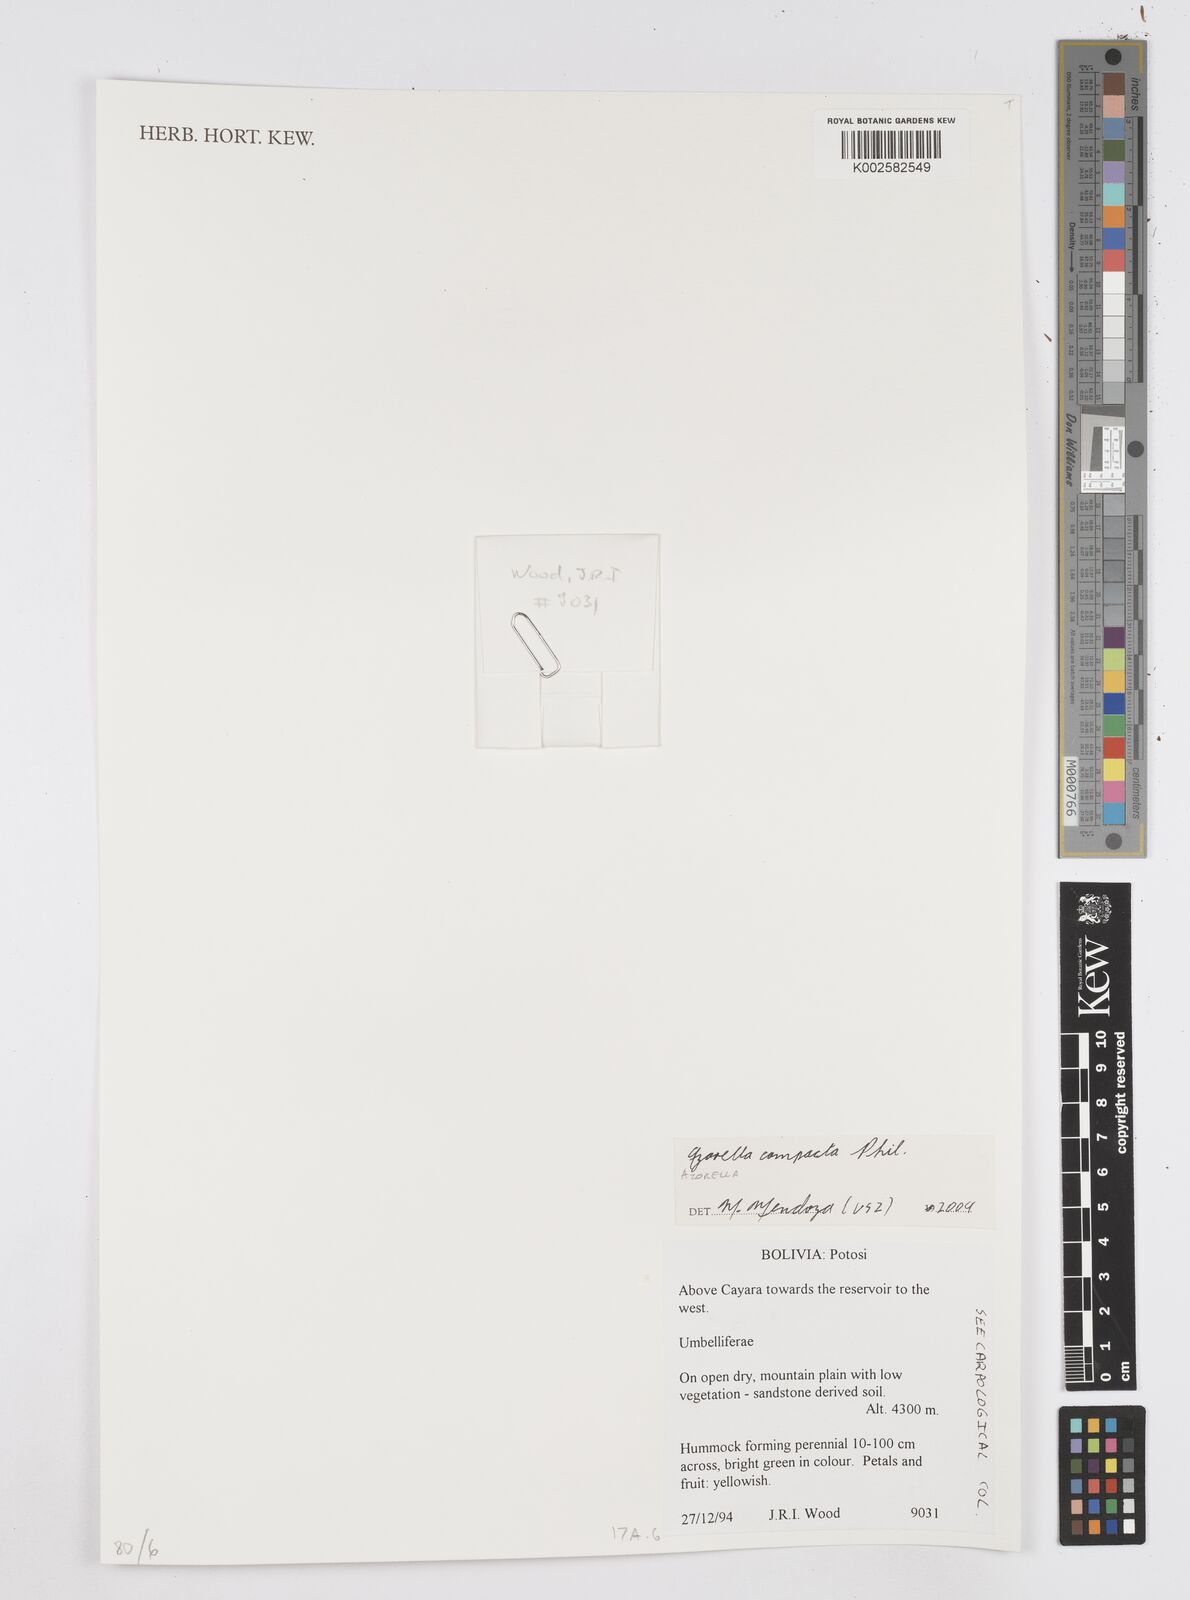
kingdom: Plantae
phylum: Tracheophyta
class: Magnoliopsida
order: Apiales
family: Apiaceae
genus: Azorella
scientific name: Azorella compacta
